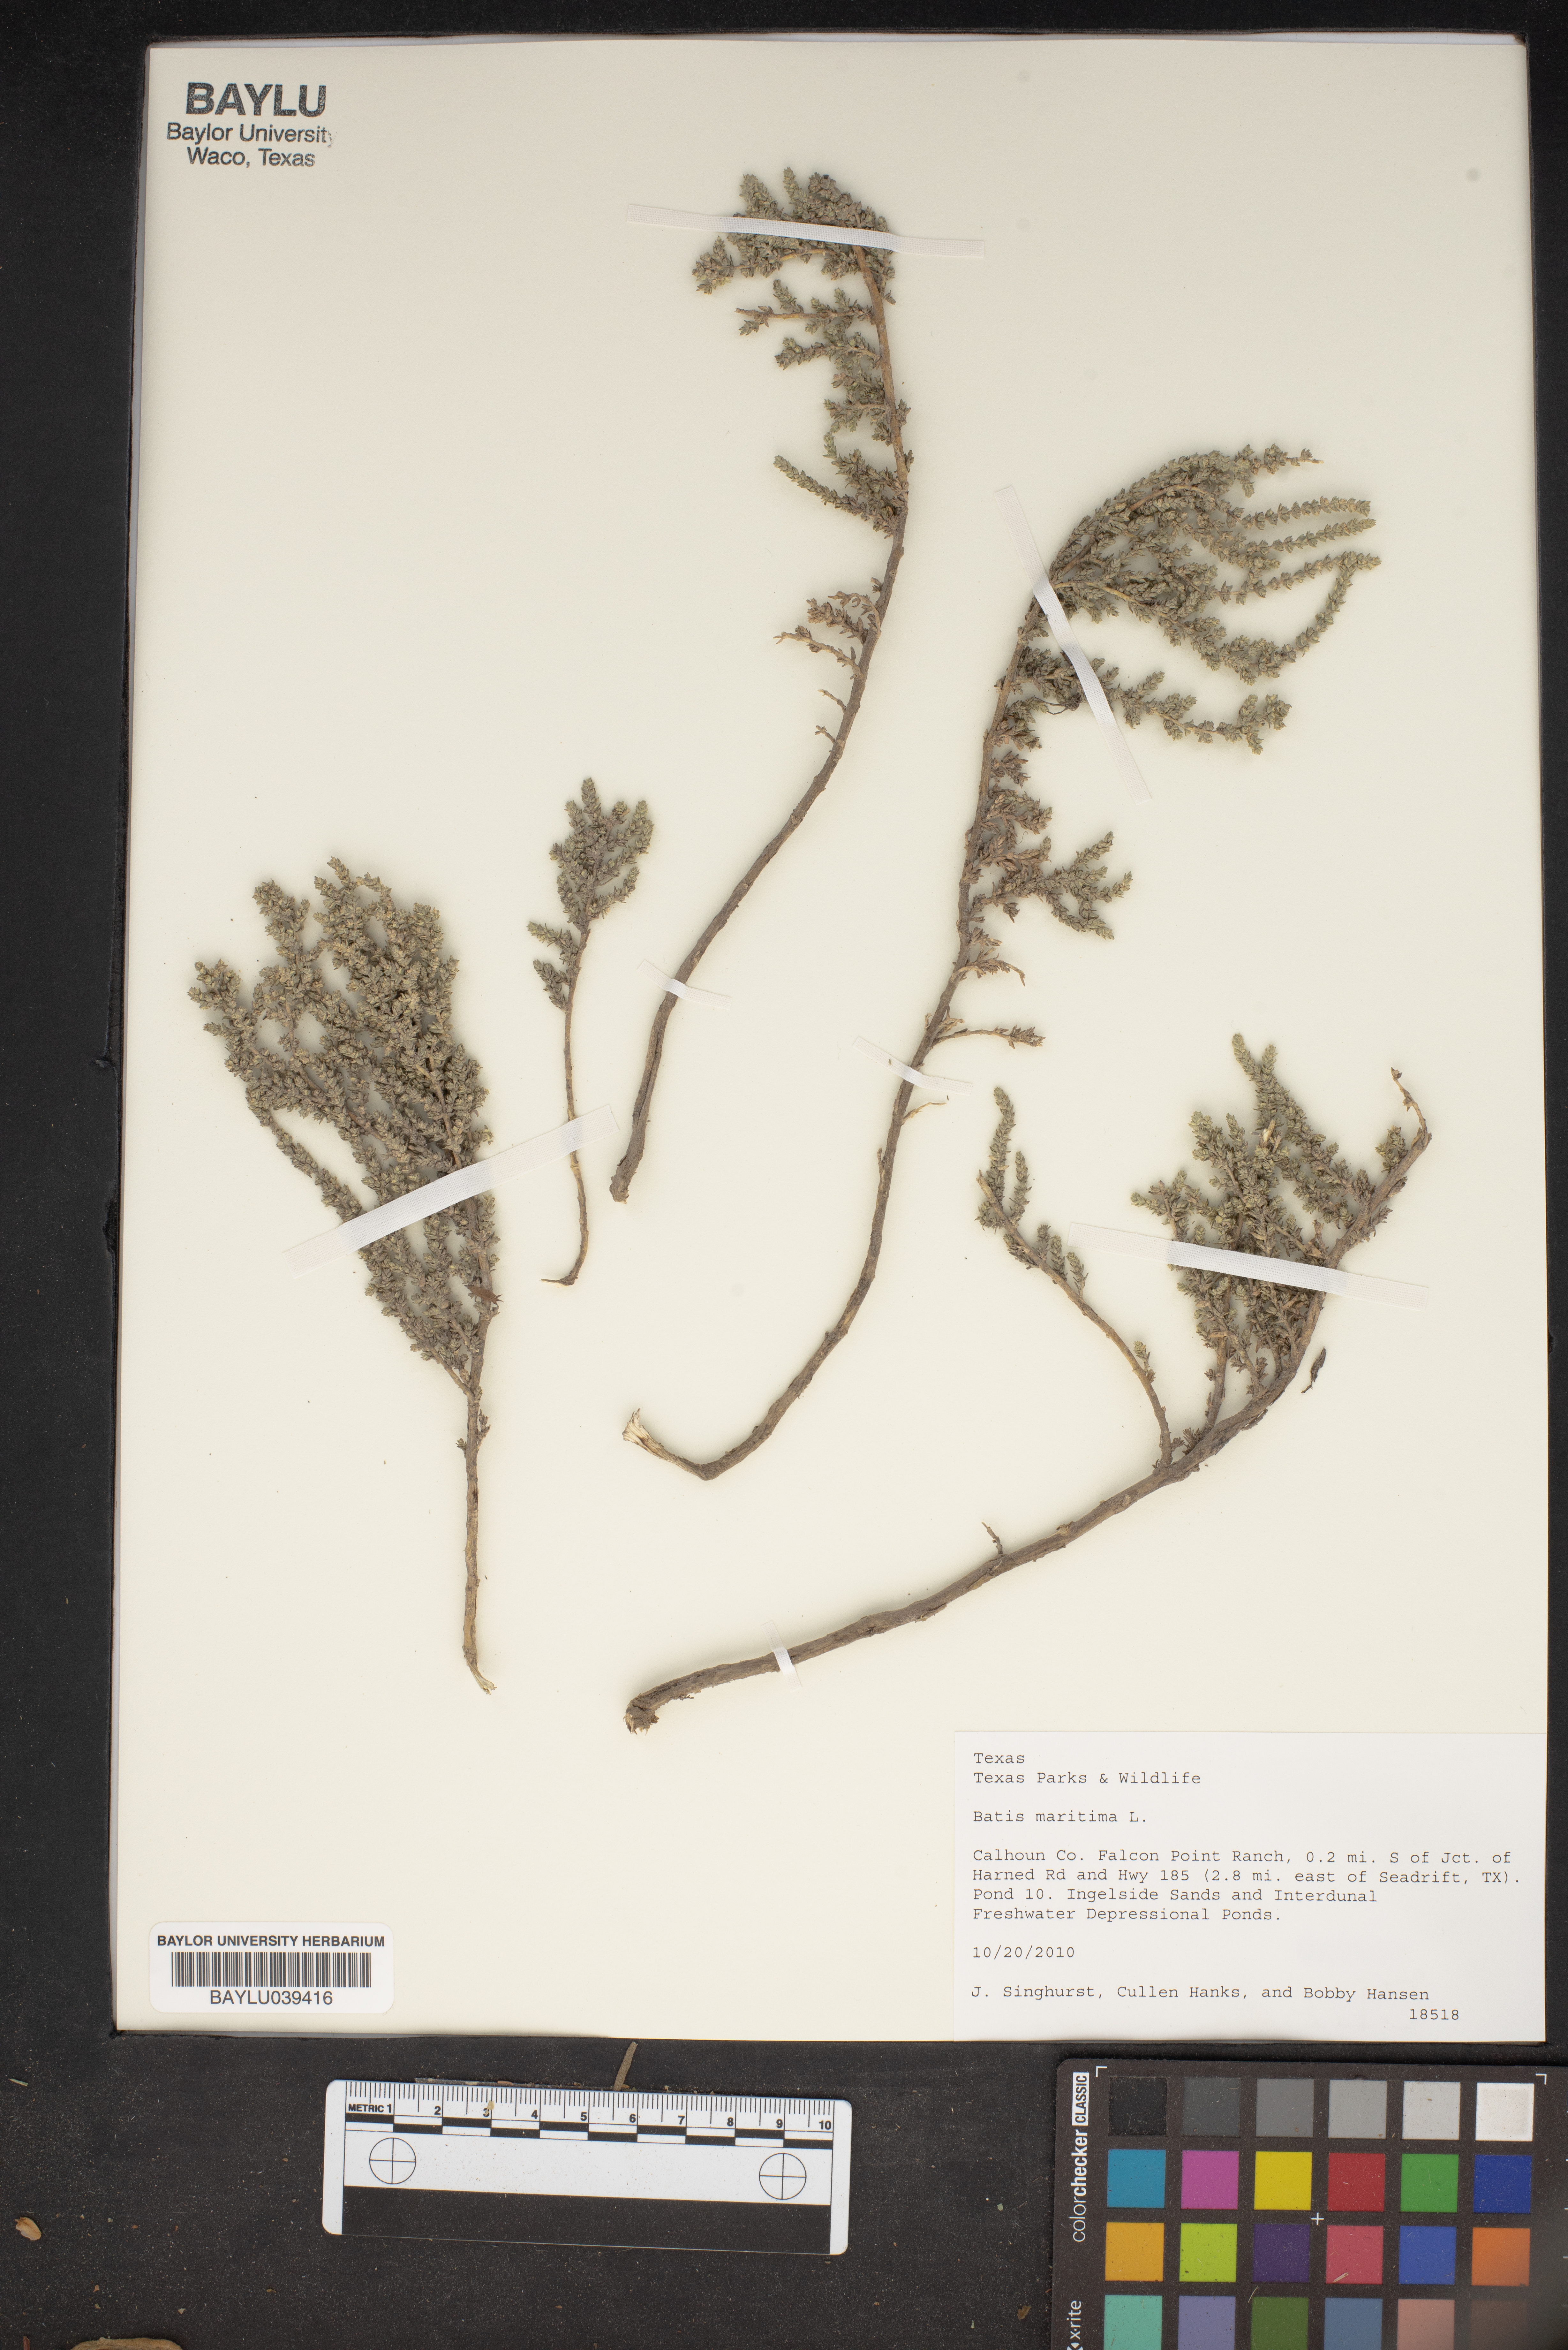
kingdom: Plantae
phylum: Tracheophyta
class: Magnoliopsida
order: Brassicales
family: Bataceae
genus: Batis
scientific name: Batis maritima
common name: Turtleweed
